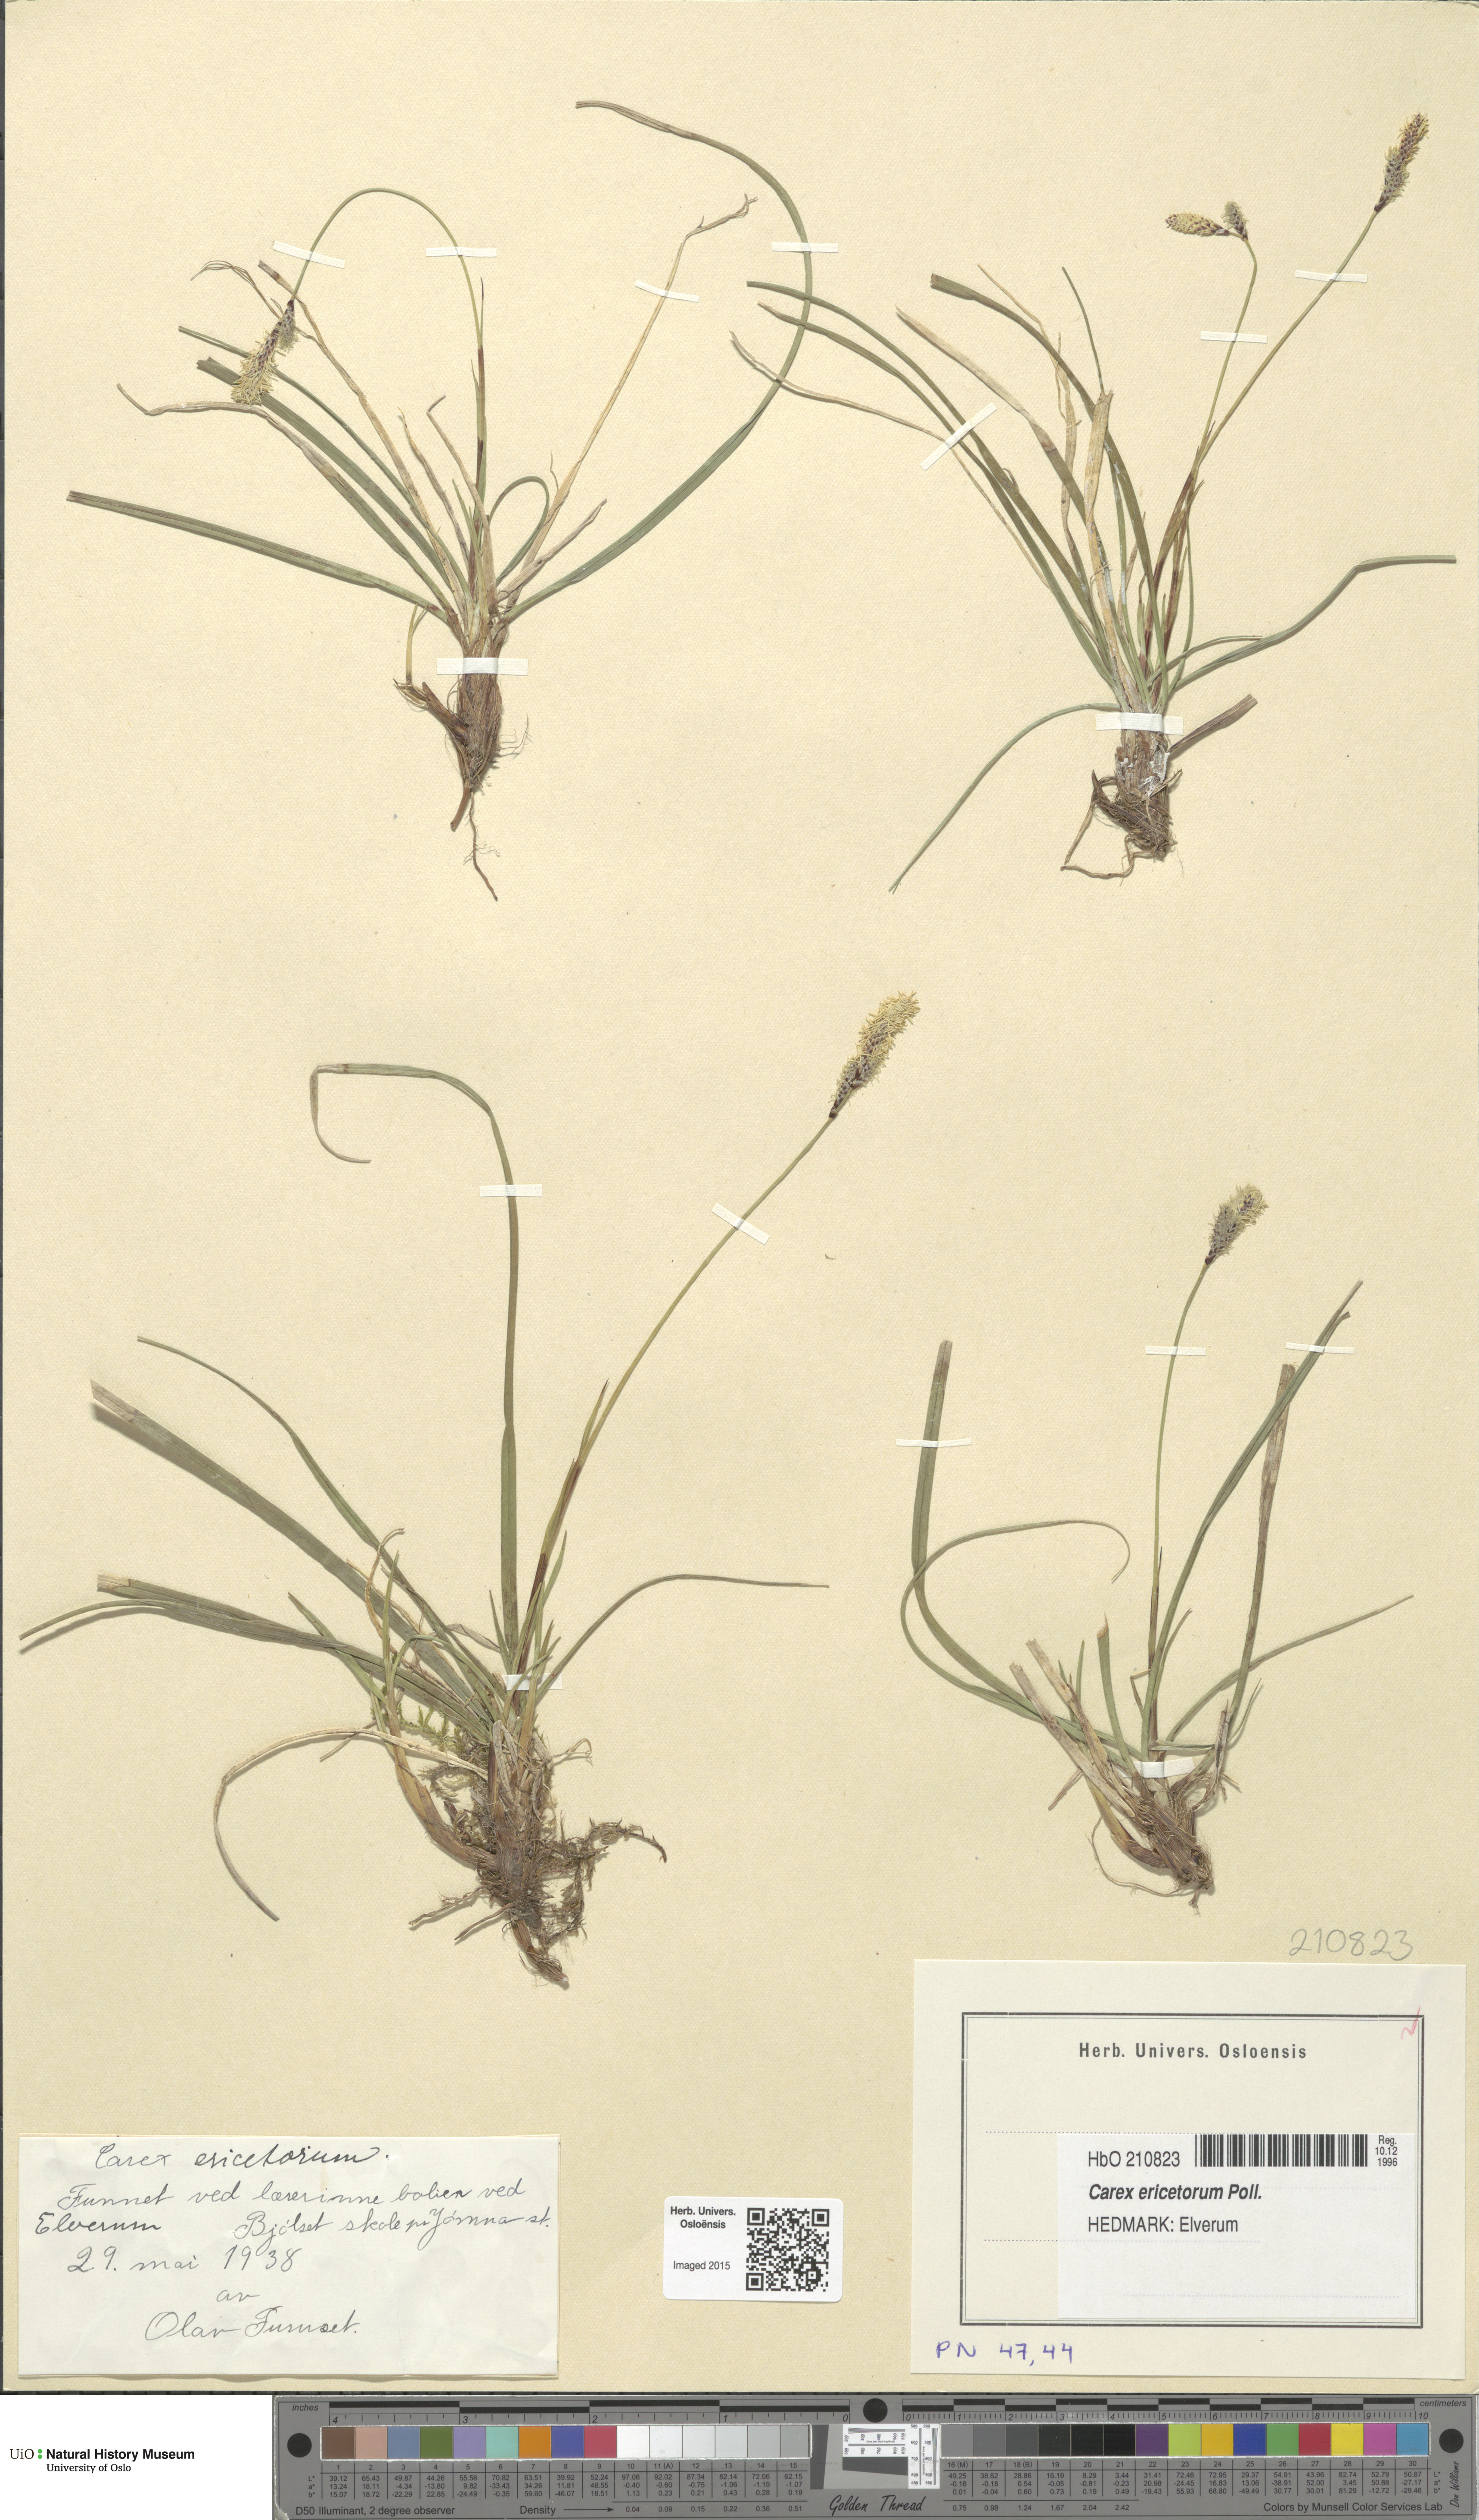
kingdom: Plantae
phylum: Tracheophyta
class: Liliopsida
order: Poales
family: Cyperaceae
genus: Carex
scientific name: Carex ericetorum
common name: Rare spring-sedge
